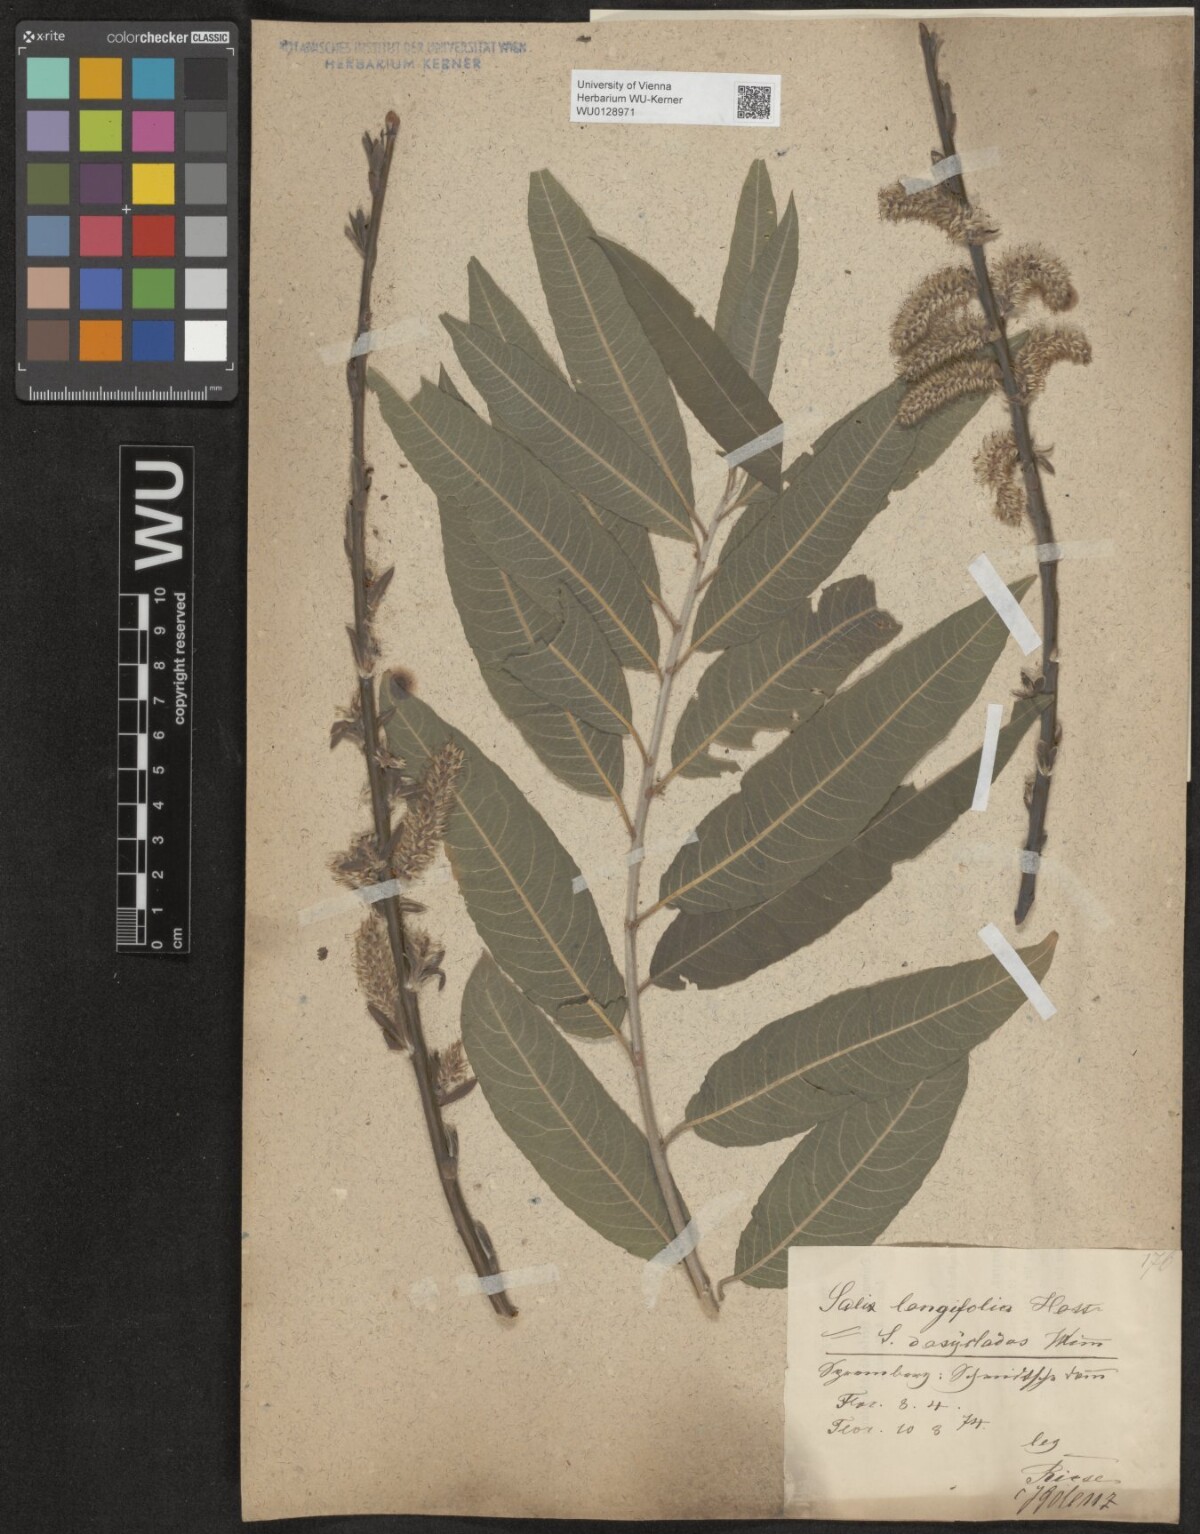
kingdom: Plantae
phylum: Tracheophyta
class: Magnoliopsida
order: Malpighiales
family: Salicaceae
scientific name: Salicaceae
